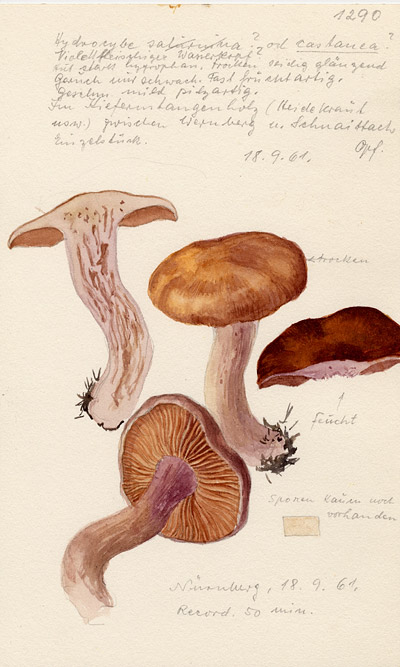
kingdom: Fungi
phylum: Basidiomycota
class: Agaricomycetes
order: Agaricales
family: Cortinariaceae
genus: Cortinarius
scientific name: Cortinarius
